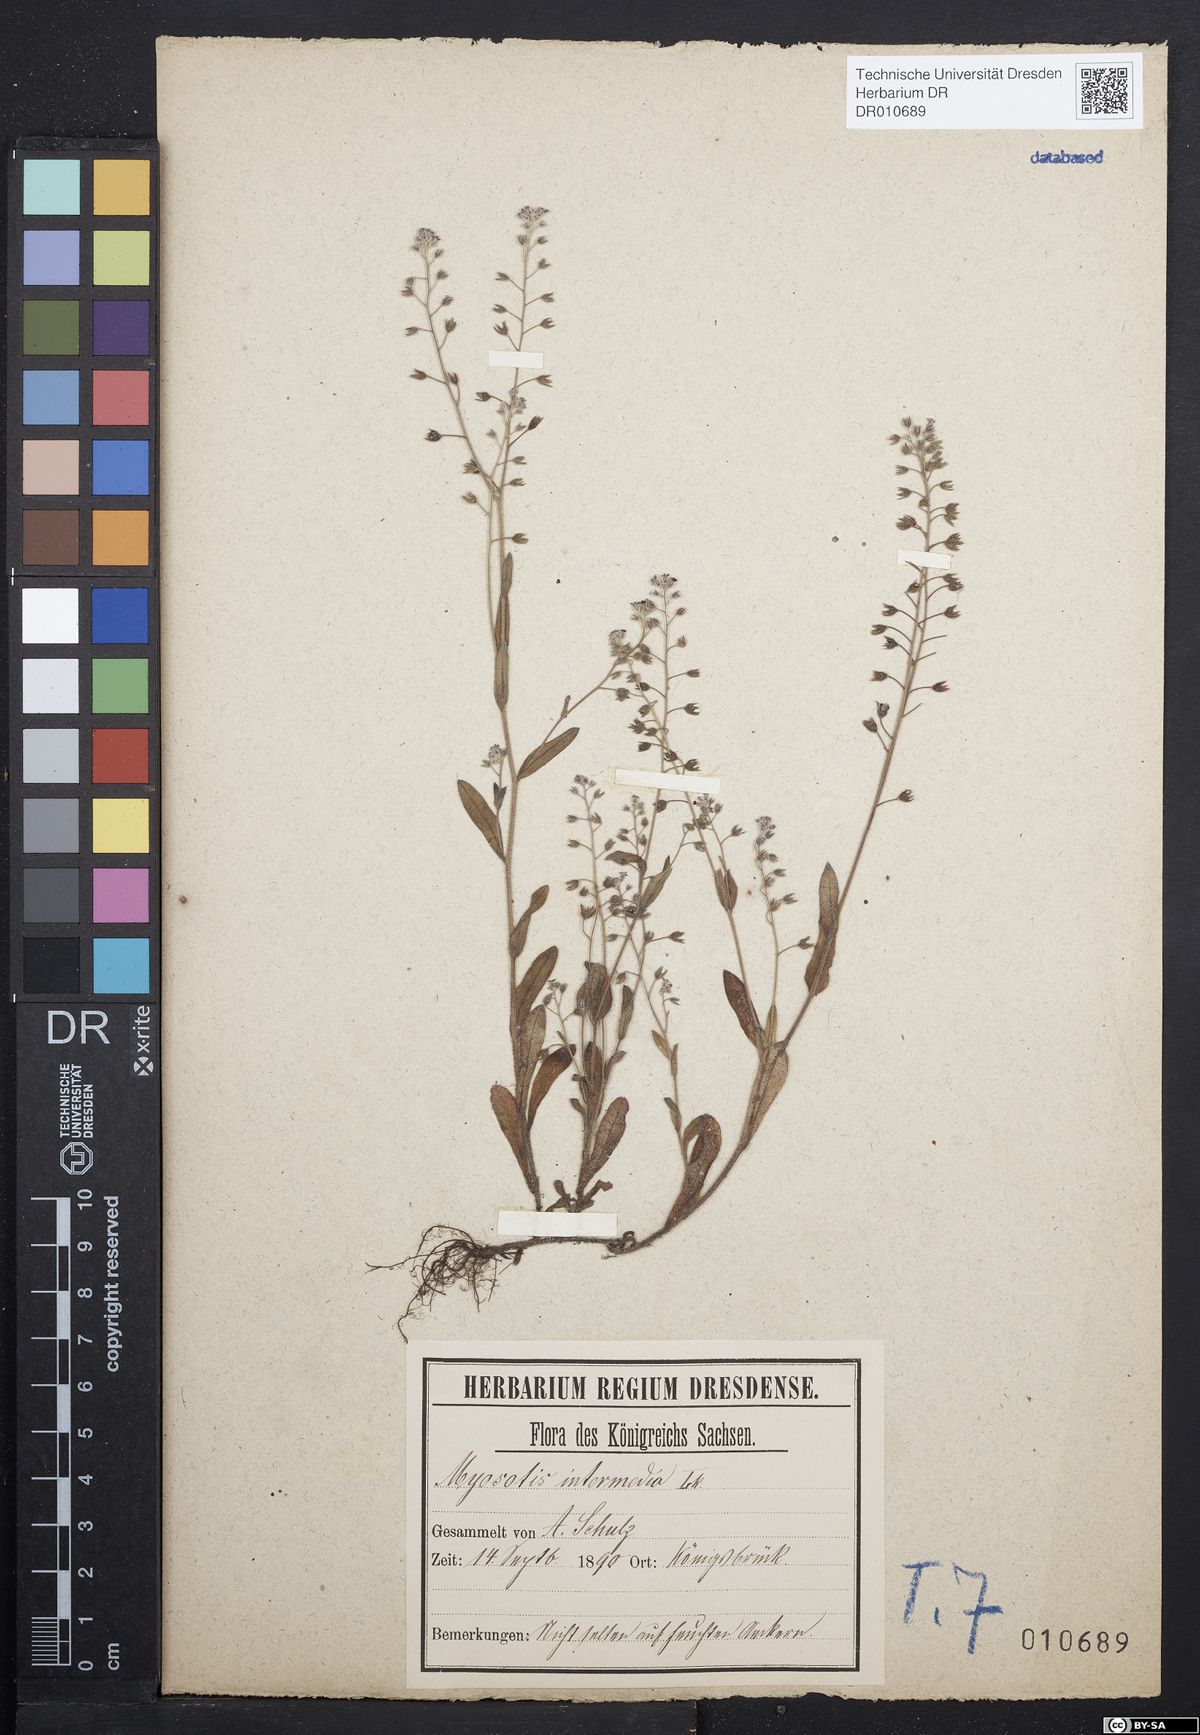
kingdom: Plantae
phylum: Tracheophyta
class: Magnoliopsida
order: Boraginales
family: Boraginaceae
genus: Myosotis
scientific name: Myosotis arvensis
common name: Field forget-me-not
